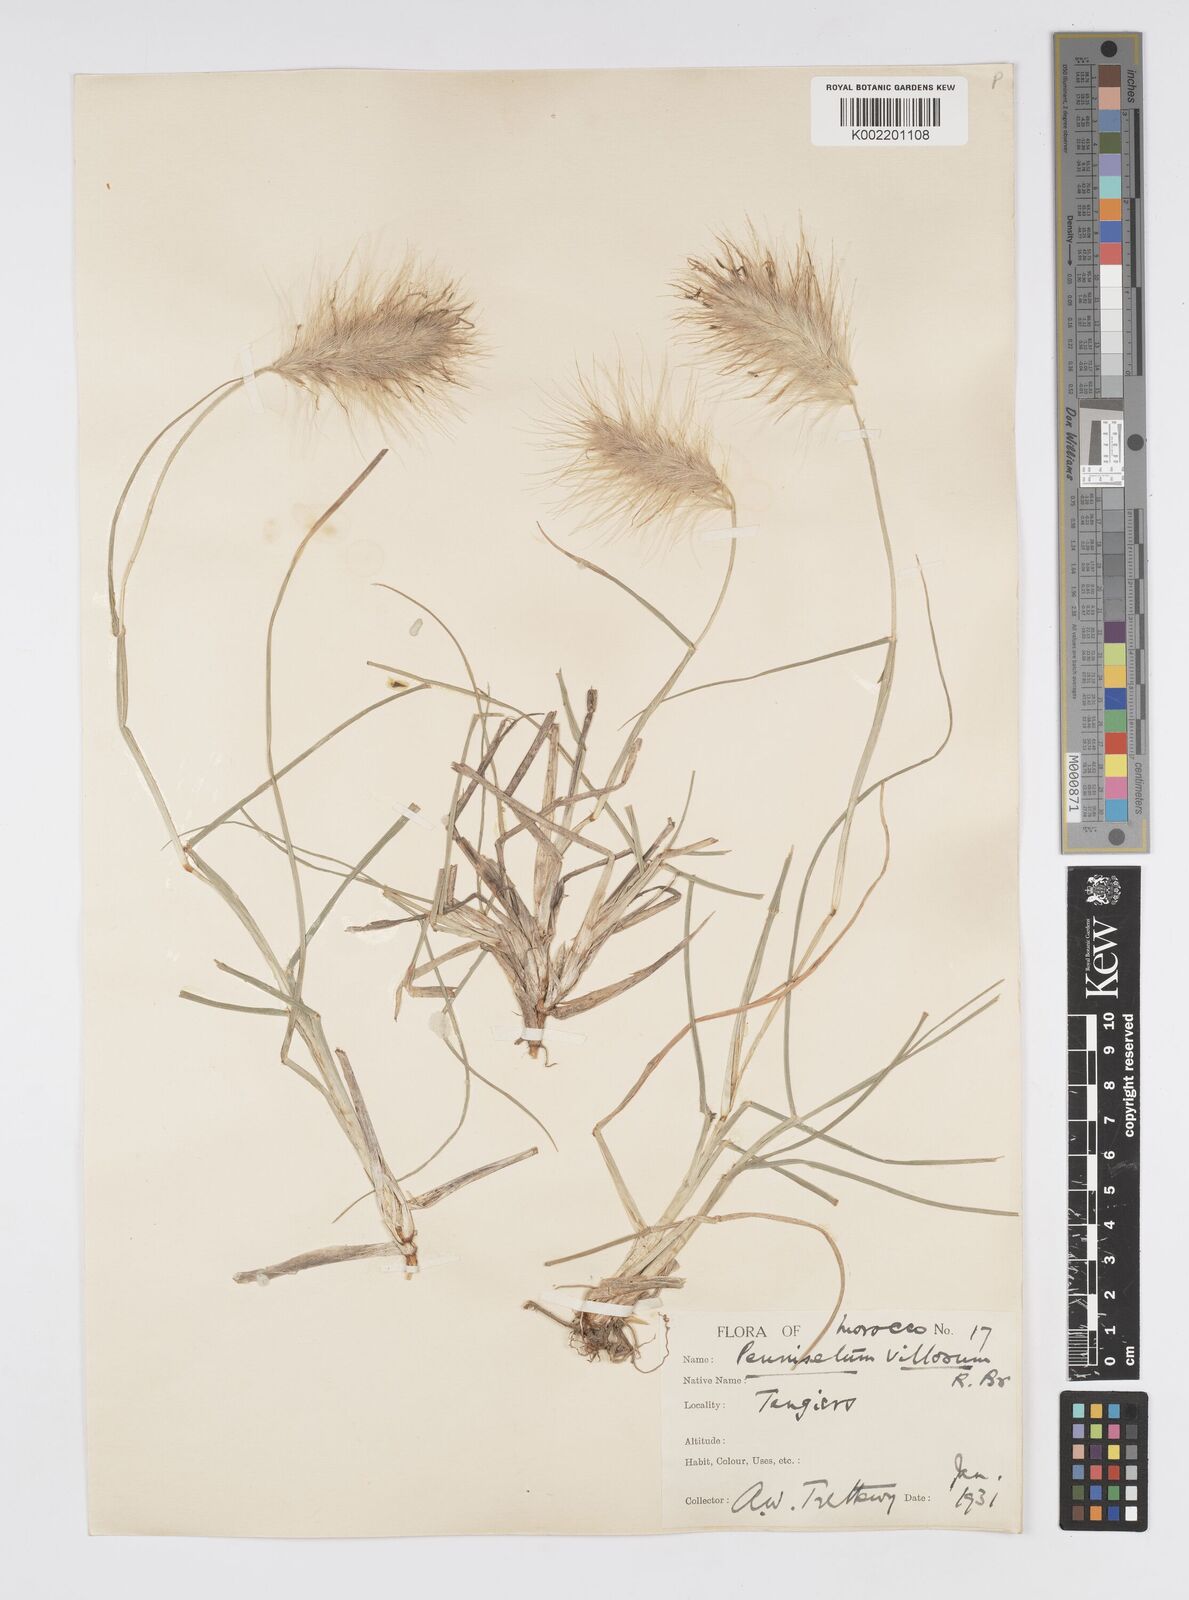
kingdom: Plantae
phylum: Tracheophyta
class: Liliopsida
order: Poales
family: Poaceae
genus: Cenchrus
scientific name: Cenchrus longisetus
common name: Feathertop
